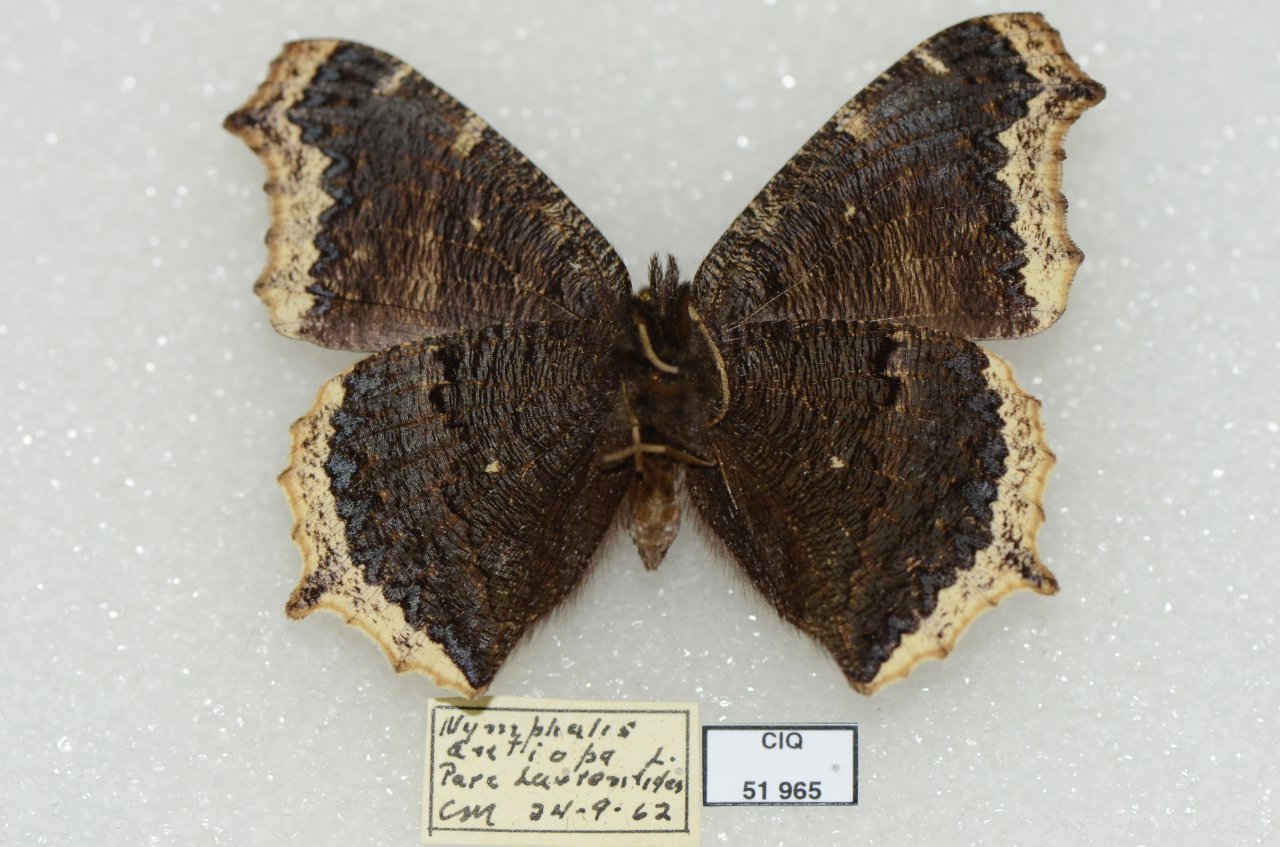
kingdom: Animalia
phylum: Arthropoda
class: Insecta
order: Lepidoptera
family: Nymphalidae
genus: Nymphalis
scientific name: Nymphalis antiopa
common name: Mourning Cloak
